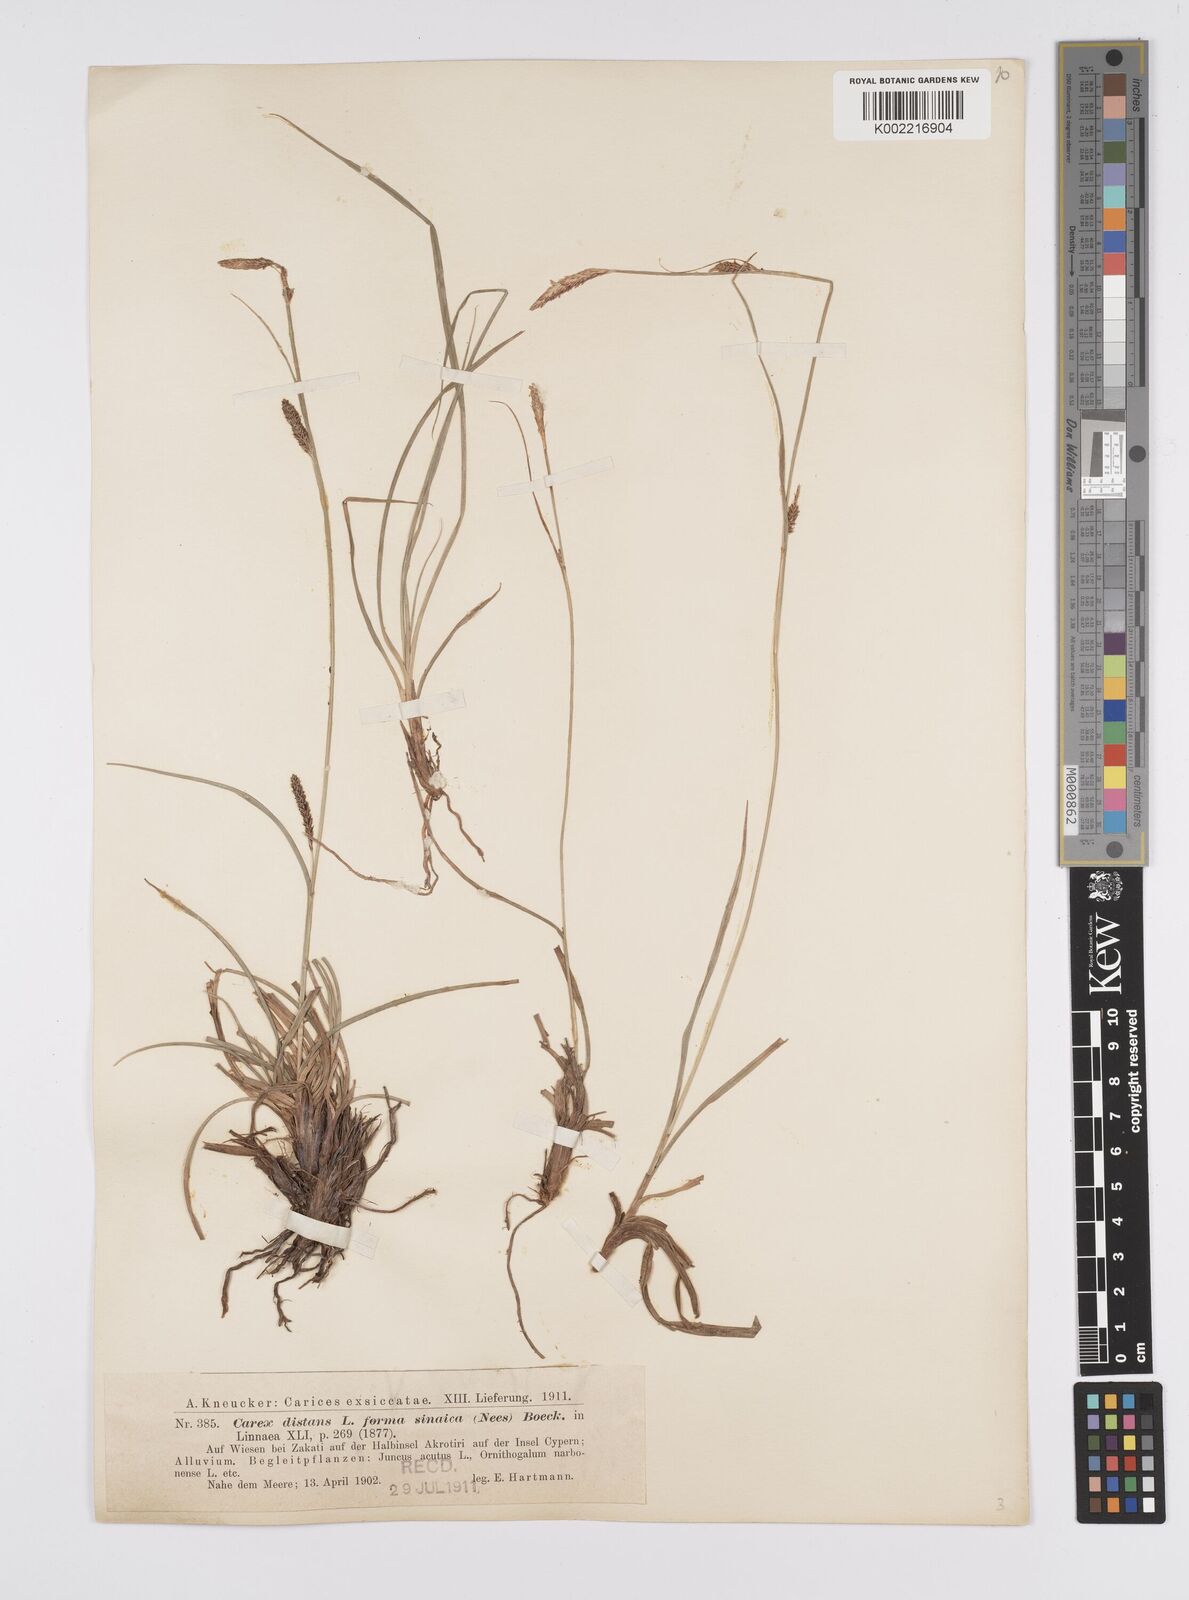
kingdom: Plantae
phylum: Tracheophyta
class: Liliopsida
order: Poales
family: Cyperaceae
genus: Carex
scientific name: Carex distans
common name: Distant sedge
